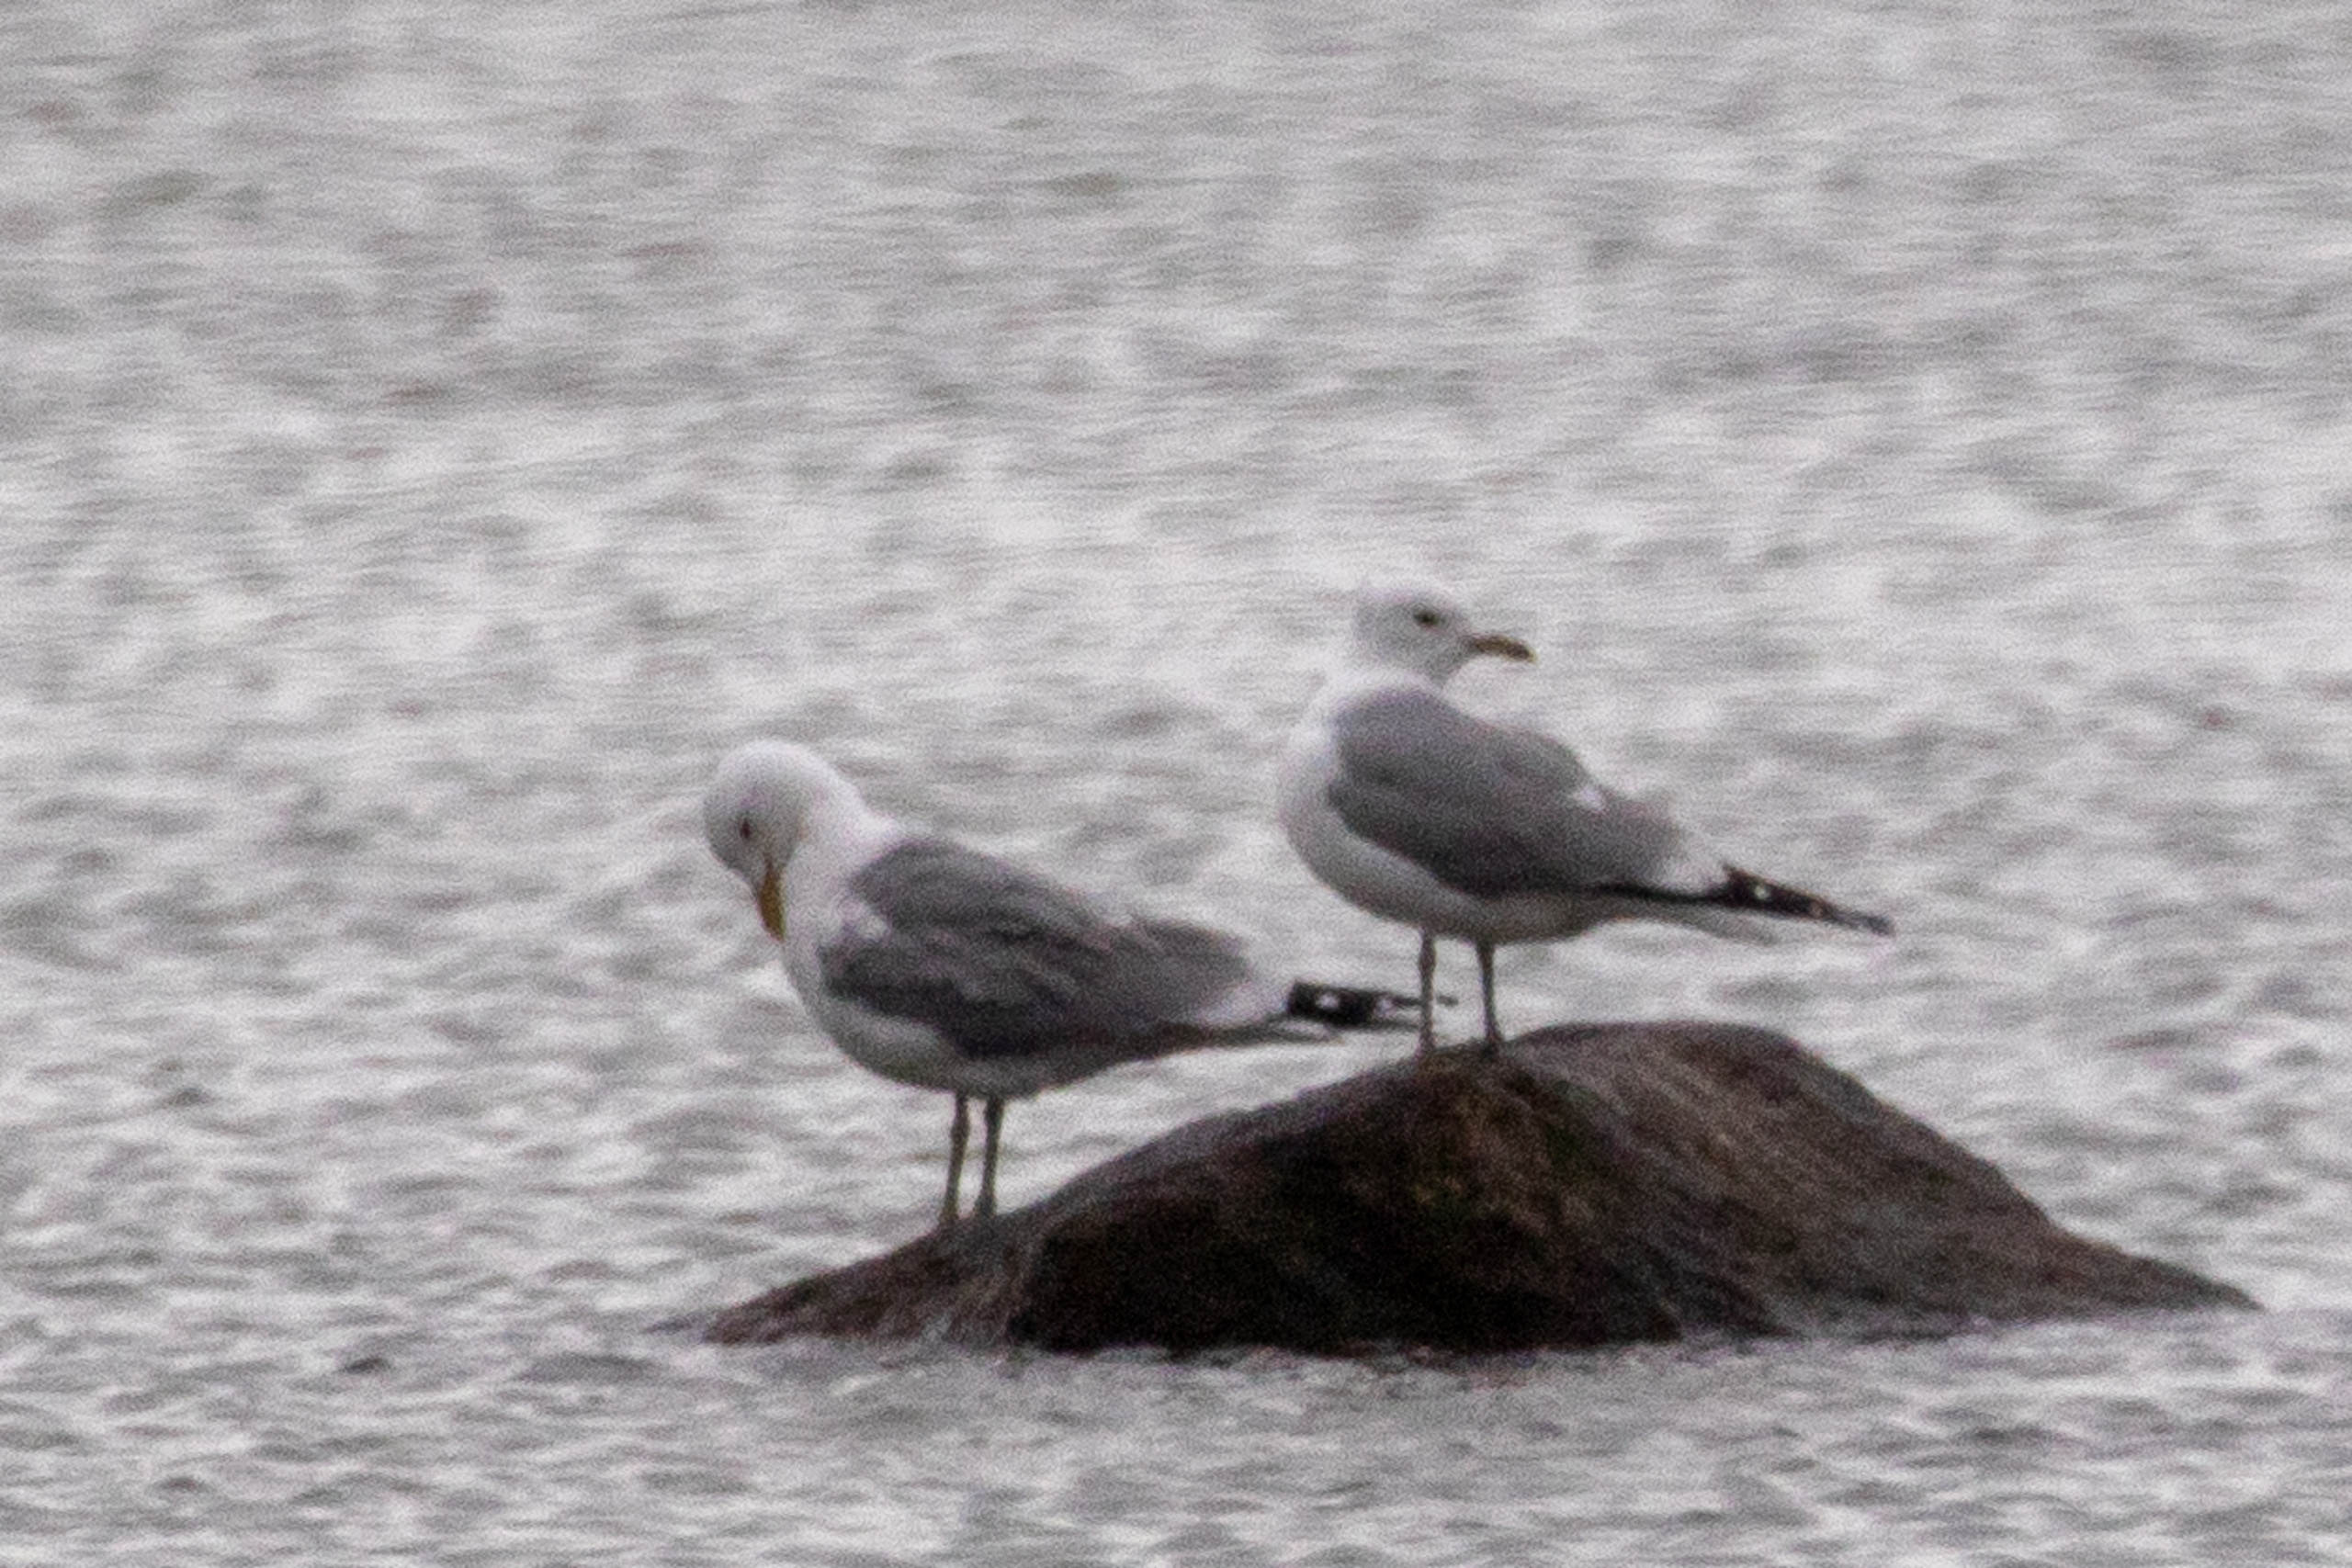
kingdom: Animalia
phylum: Chordata
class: Aves
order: Charadriiformes
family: Laridae
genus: Larus
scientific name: Larus canus
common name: Stormmåge
